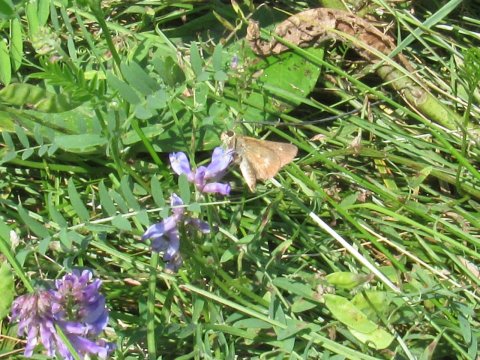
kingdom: Animalia
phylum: Arthropoda
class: Insecta
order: Lepidoptera
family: Hesperiidae
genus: Polites
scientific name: Polites egeremet
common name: Northern Broken-Dash
